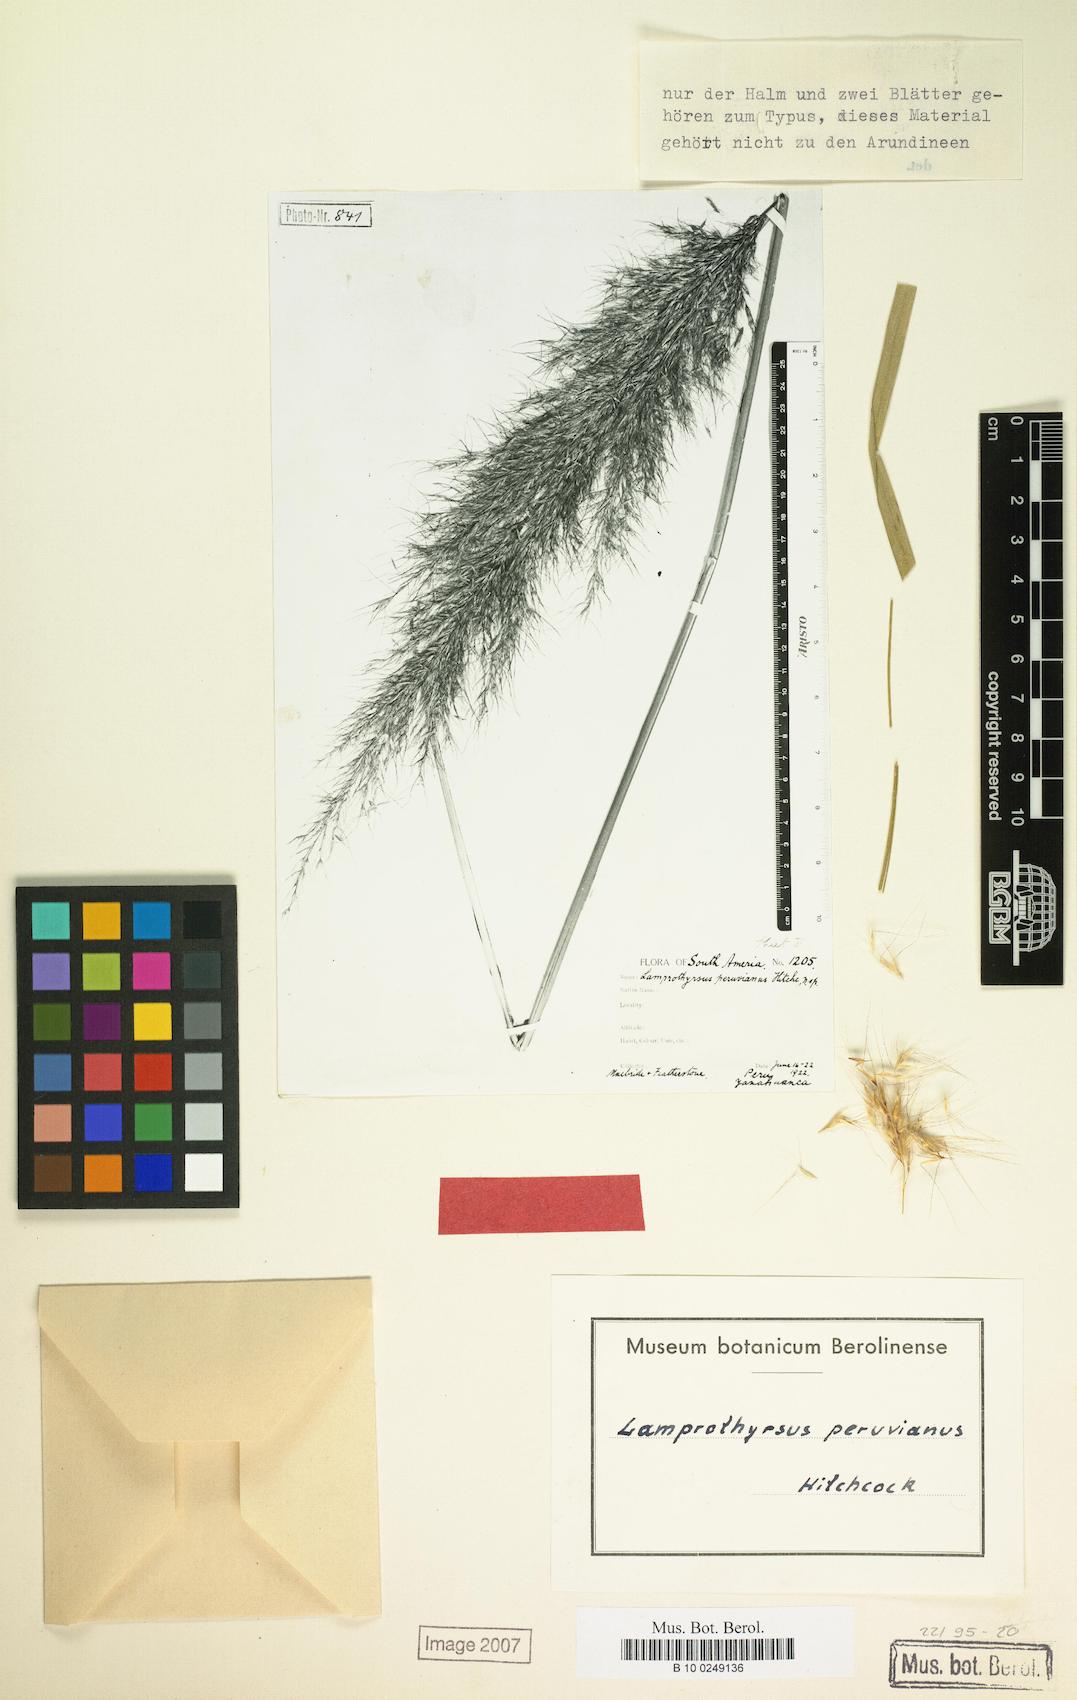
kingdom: Plantae
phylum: Tracheophyta
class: Liliopsida
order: Poales
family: Poaceae
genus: Cortaderia
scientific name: Cortaderia hieronymi
